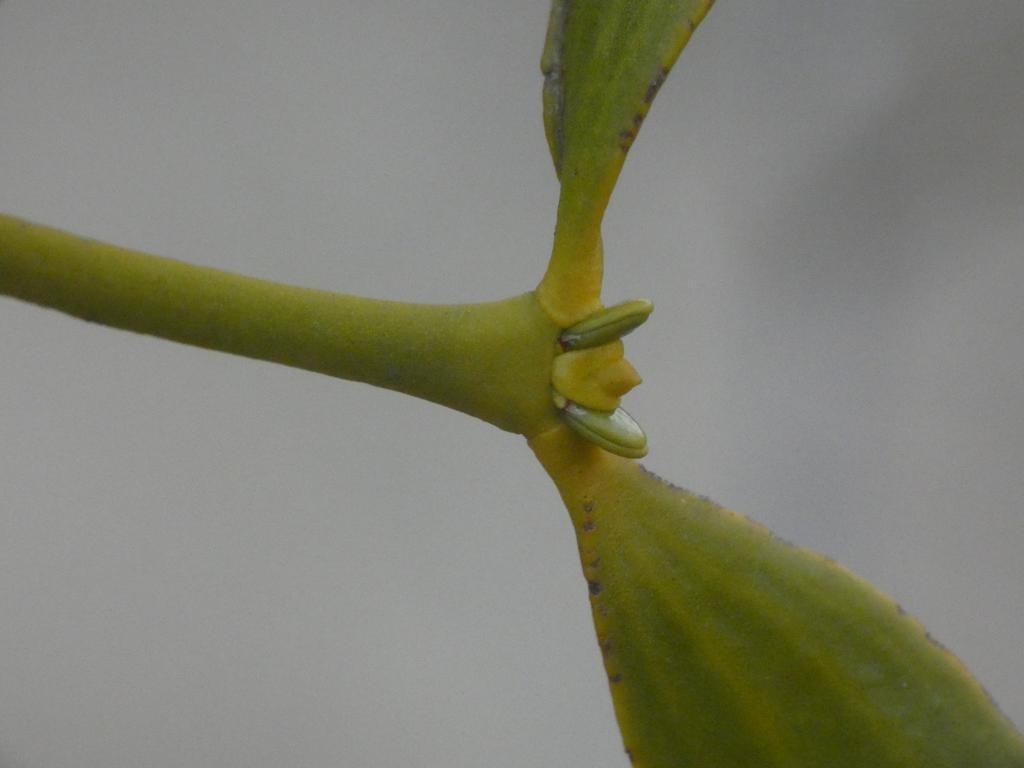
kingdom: Plantae
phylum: Tracheophyta
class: Magnoliopsida
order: Santalales
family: Viscaceae
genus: Viscum
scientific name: Viscum album
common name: Mistelten
